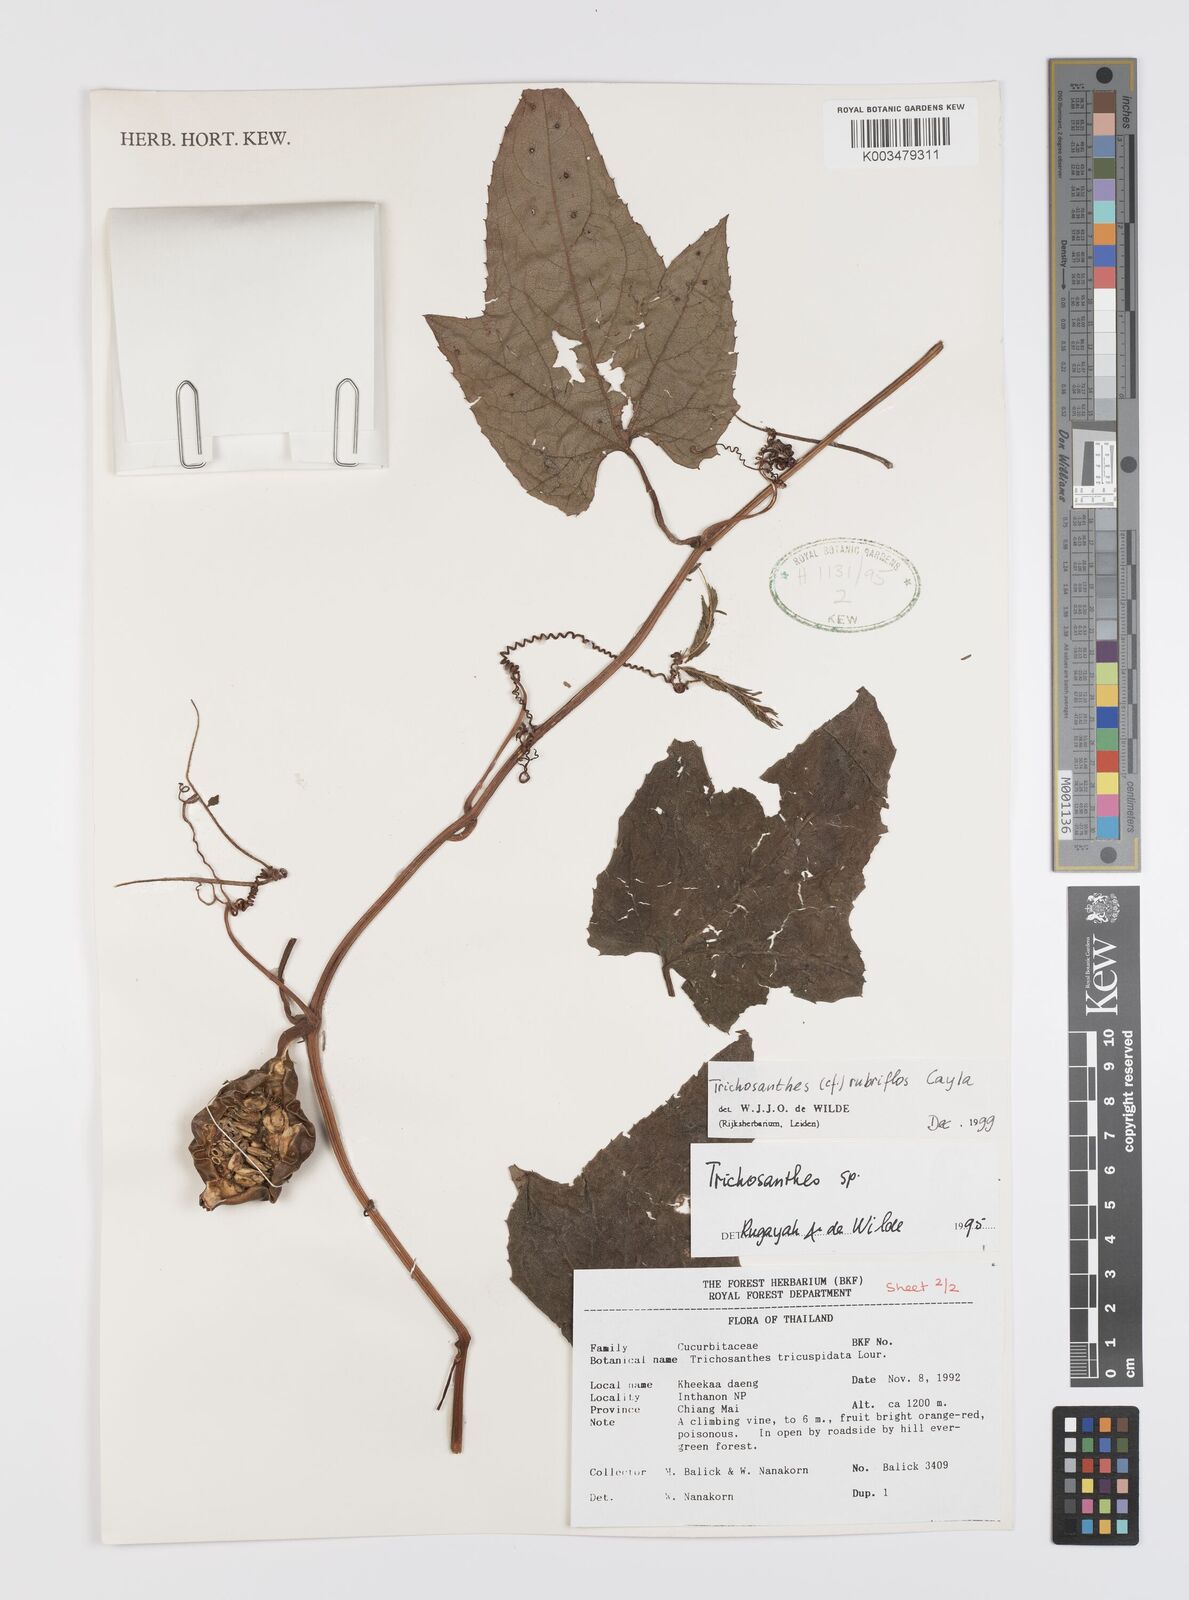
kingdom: Plantae
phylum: Tracheophyta
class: Magnoliopsida
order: Cucurbitales
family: Cucurbitaceae
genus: Trichosanthes
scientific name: Trichosanthes rubriflos
